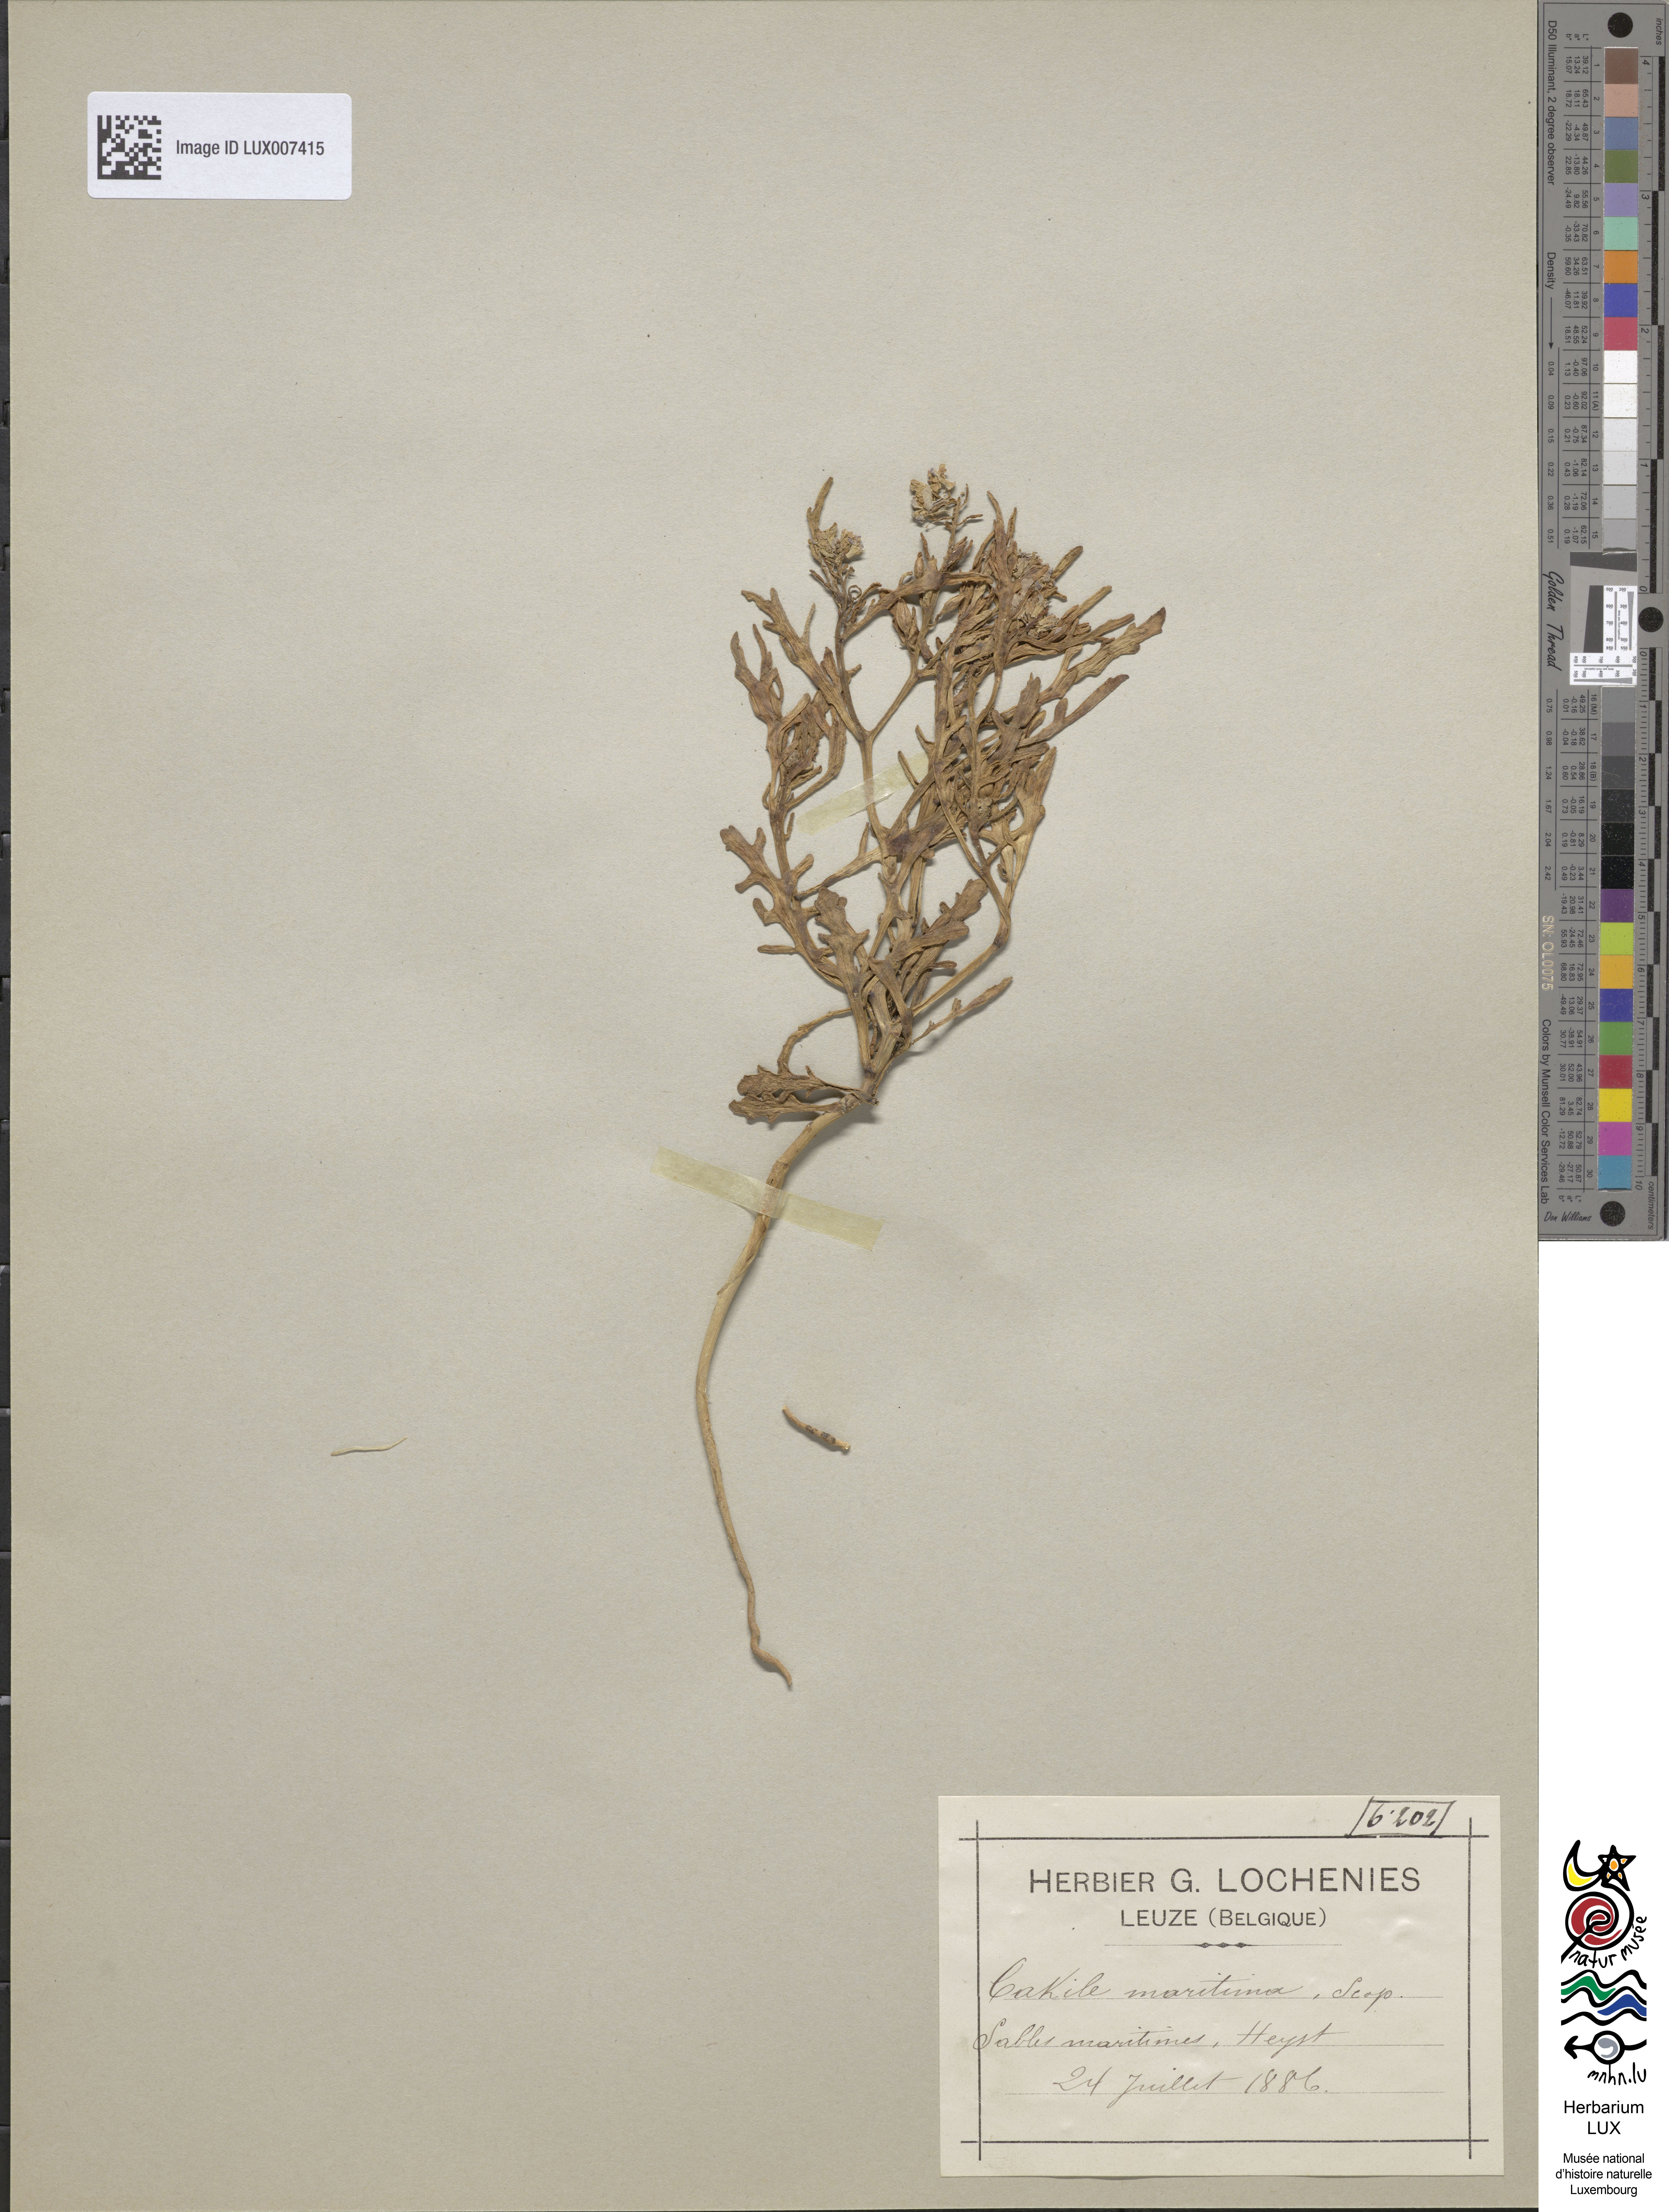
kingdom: Plantae
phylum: Tracheophyta
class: Magnoliopsida
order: Brassicales
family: Brassicaceae
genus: Cakile
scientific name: Cakile maritima
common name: Sea rocket
